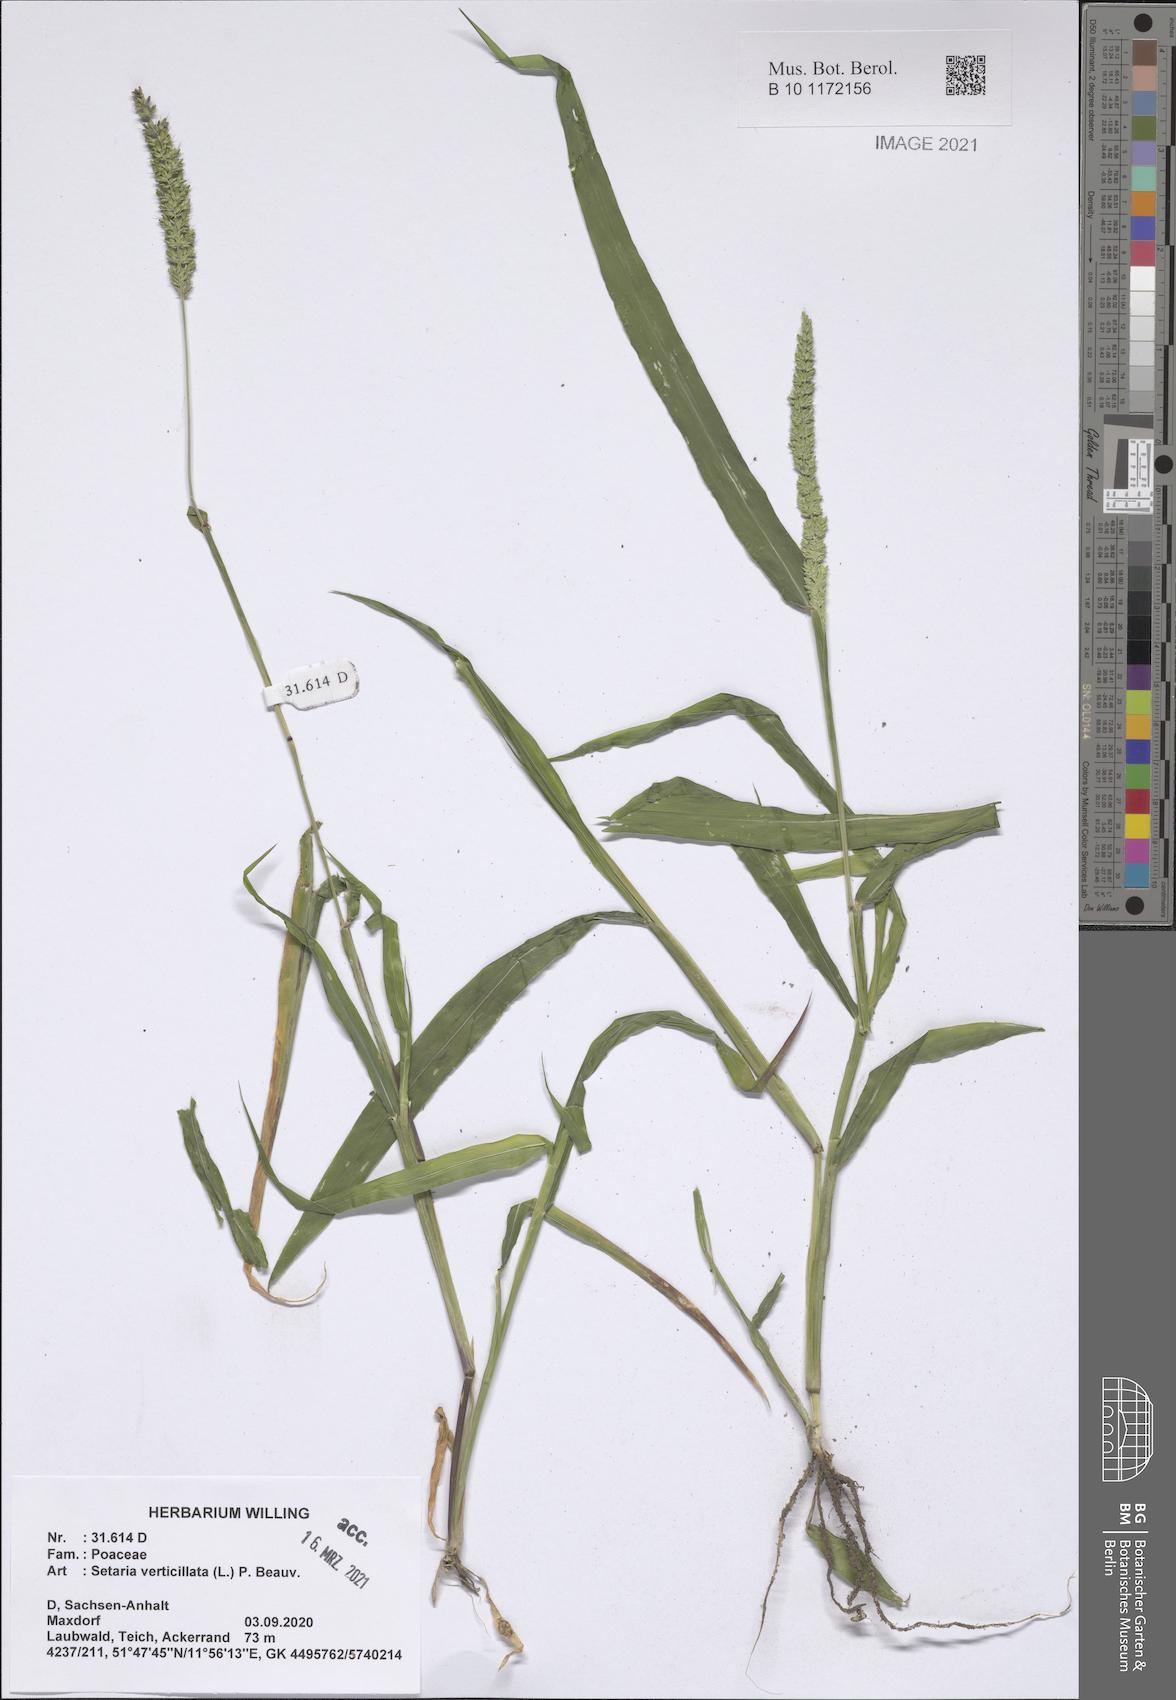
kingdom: Plantae
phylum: Tracheophyta
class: Liliopsida
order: Poales
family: Poaceae
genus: Setaria
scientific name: Setaria verticillata
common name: Hooked bristlegrass
